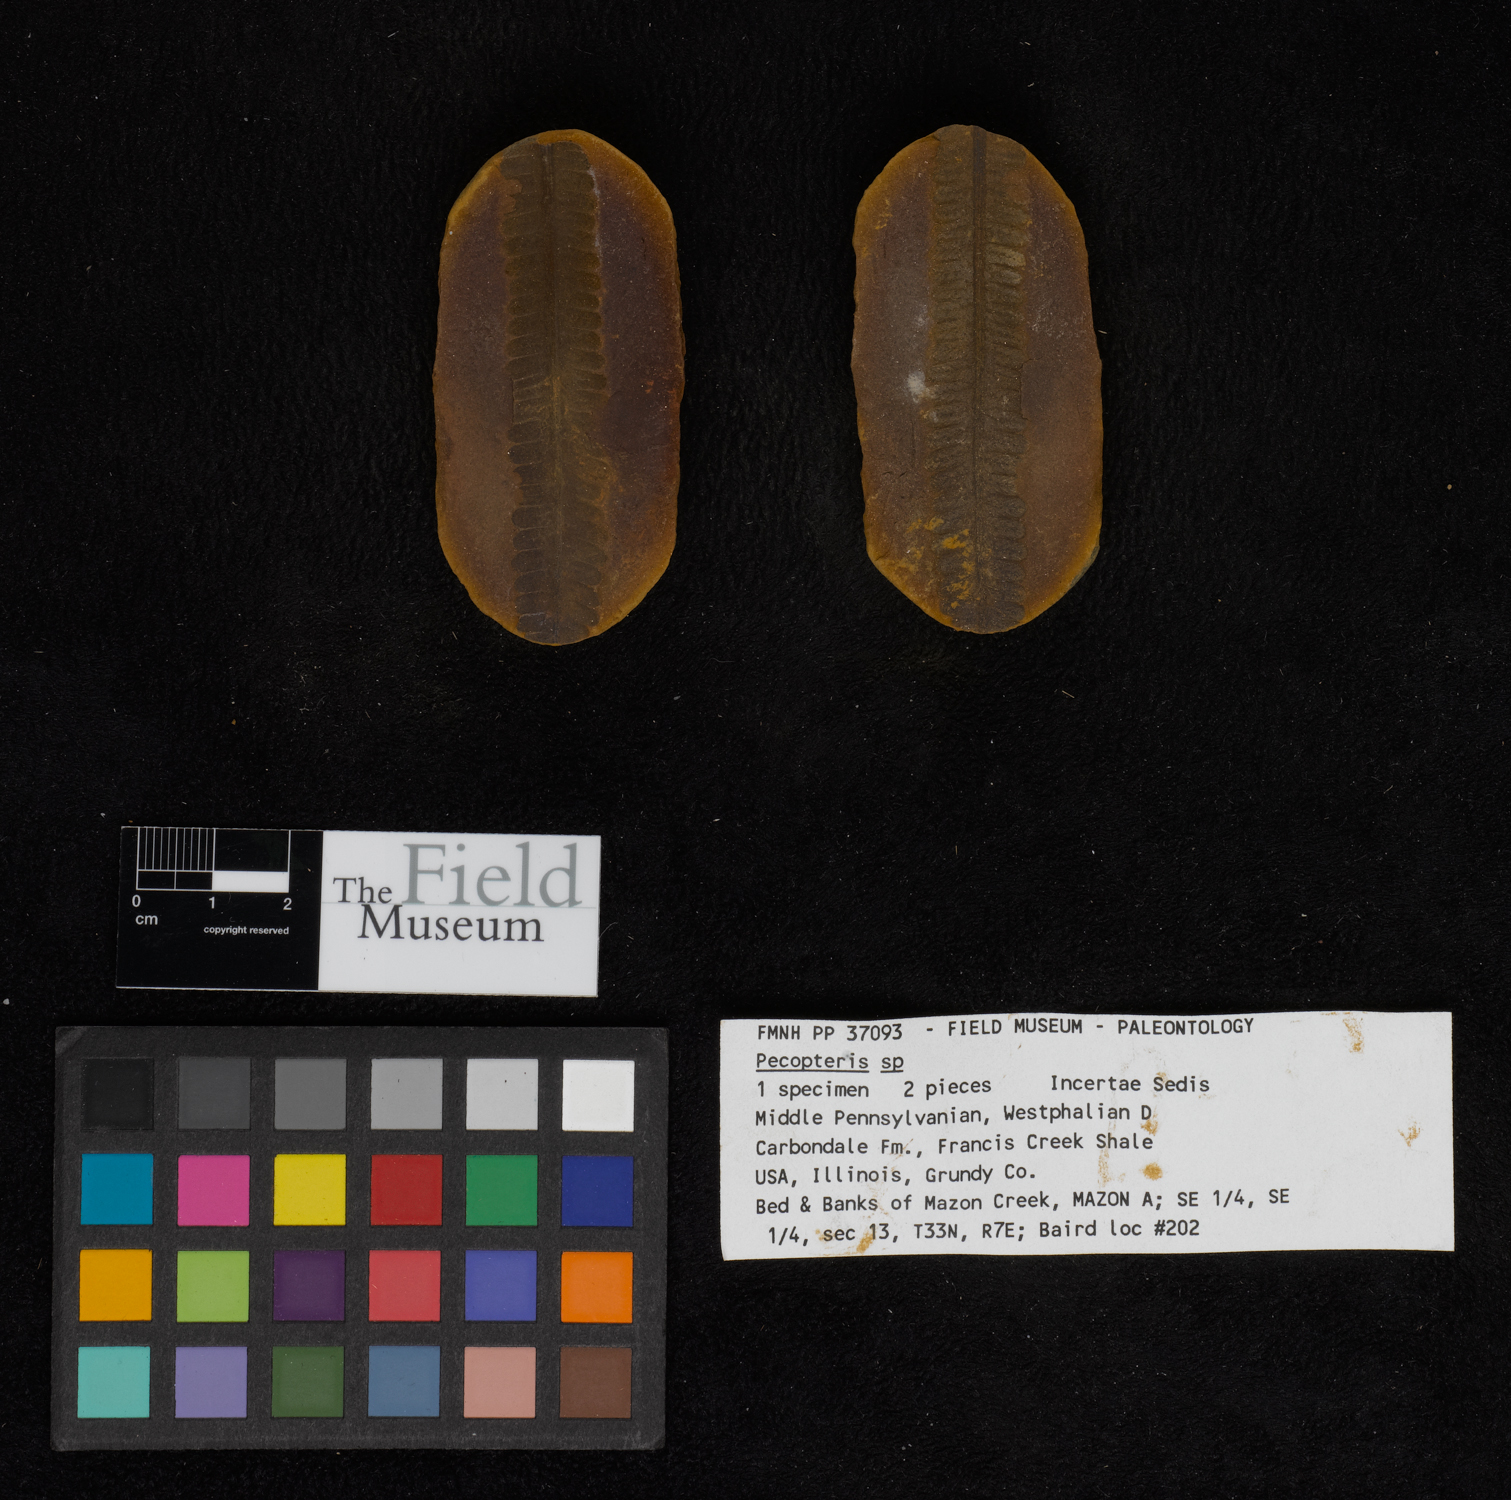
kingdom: Plantae
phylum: Tracheophyta
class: Polypodiopsida
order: Marattiales
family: Asterothecaceae
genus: Pecopteris
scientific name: Pecopteris
